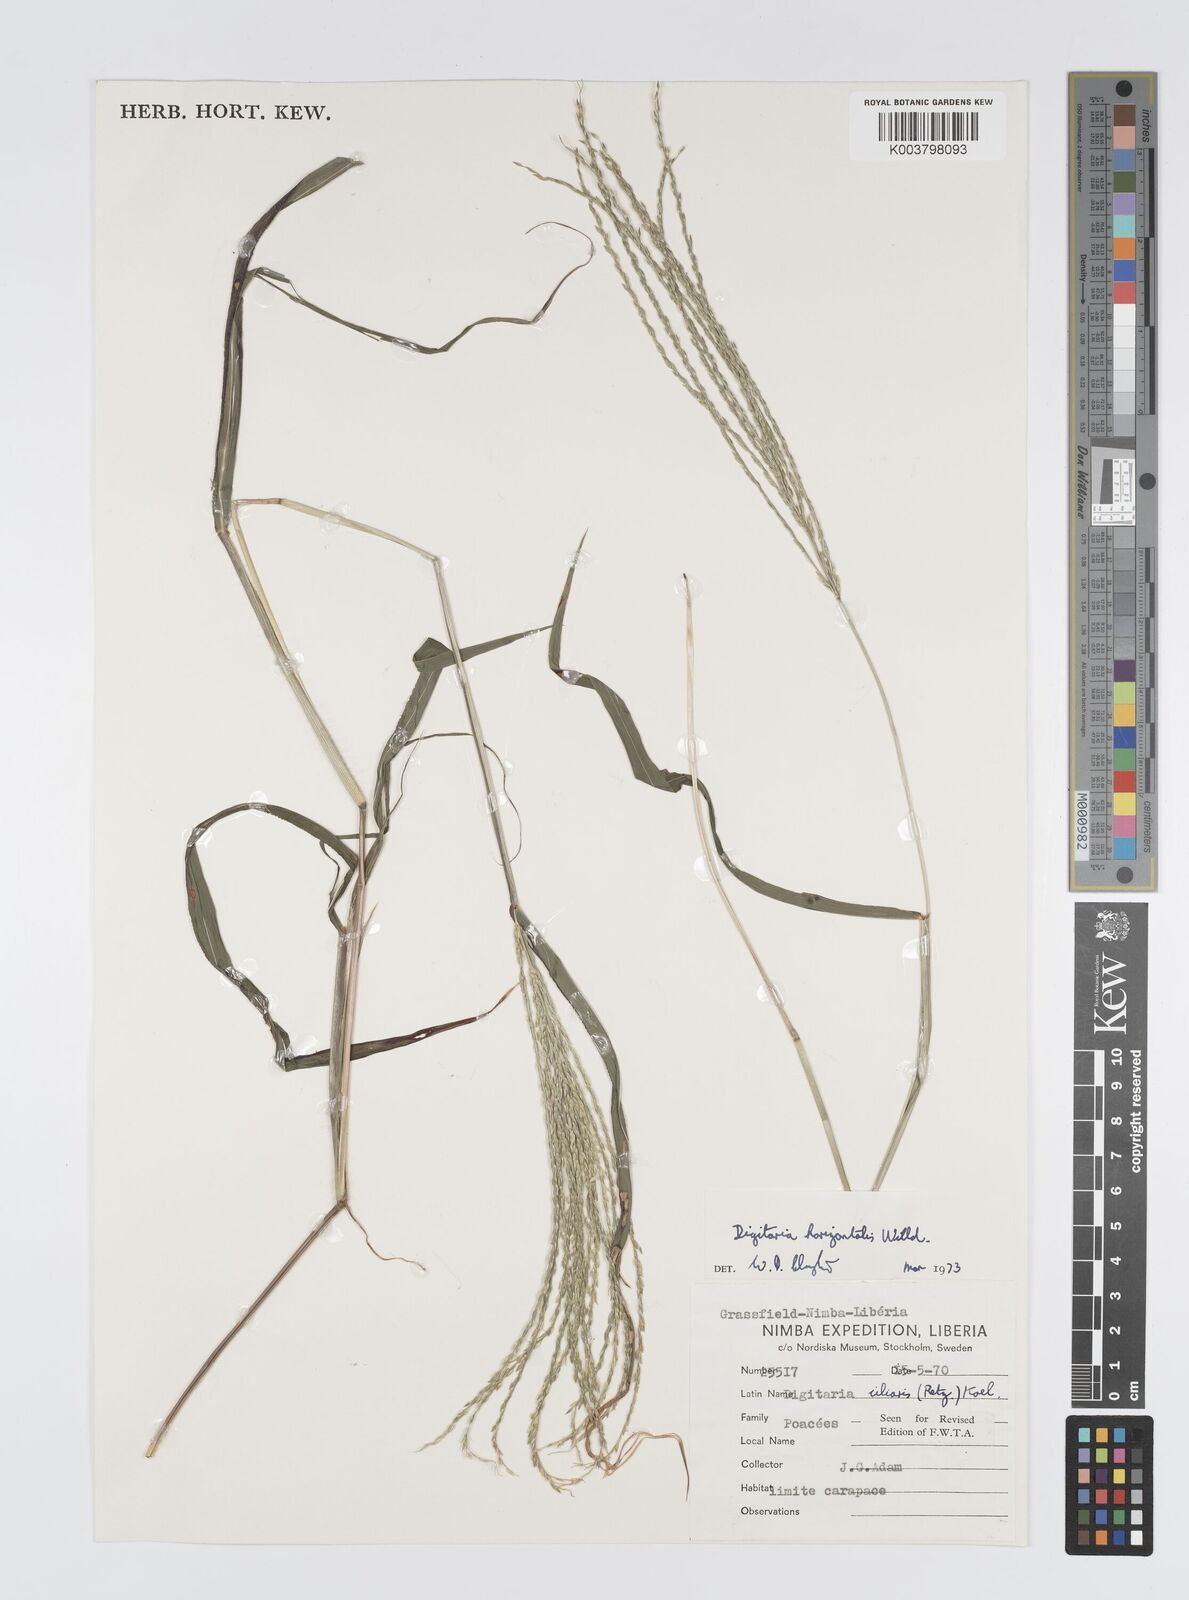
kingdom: Plantae
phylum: Tracheophyta
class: Liliopsida
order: Poales
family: Poaceae
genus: Digitaria
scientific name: Digitaria horizontalis
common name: Jamaican crabgrass
